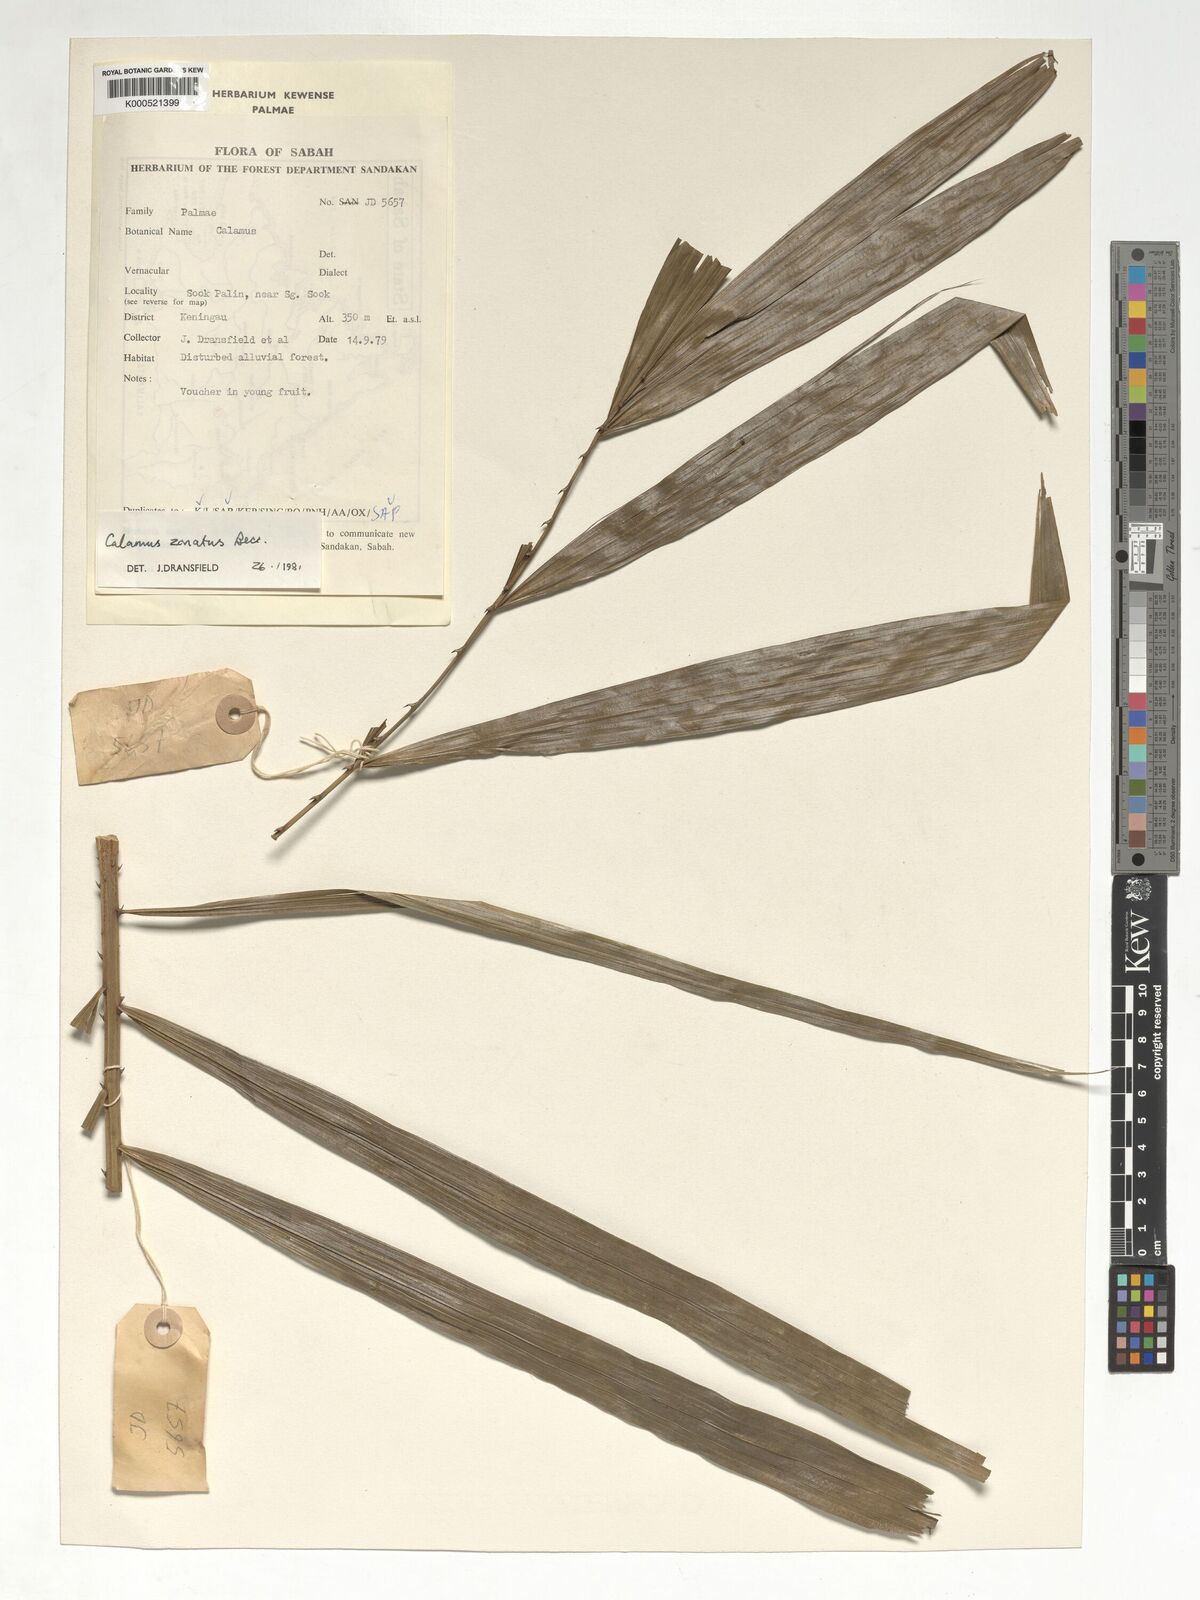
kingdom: Plantae
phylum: Tracheophyta
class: Liliopsida
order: Arecales
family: Arecaceae
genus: Calamus
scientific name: Calamus zonatus
